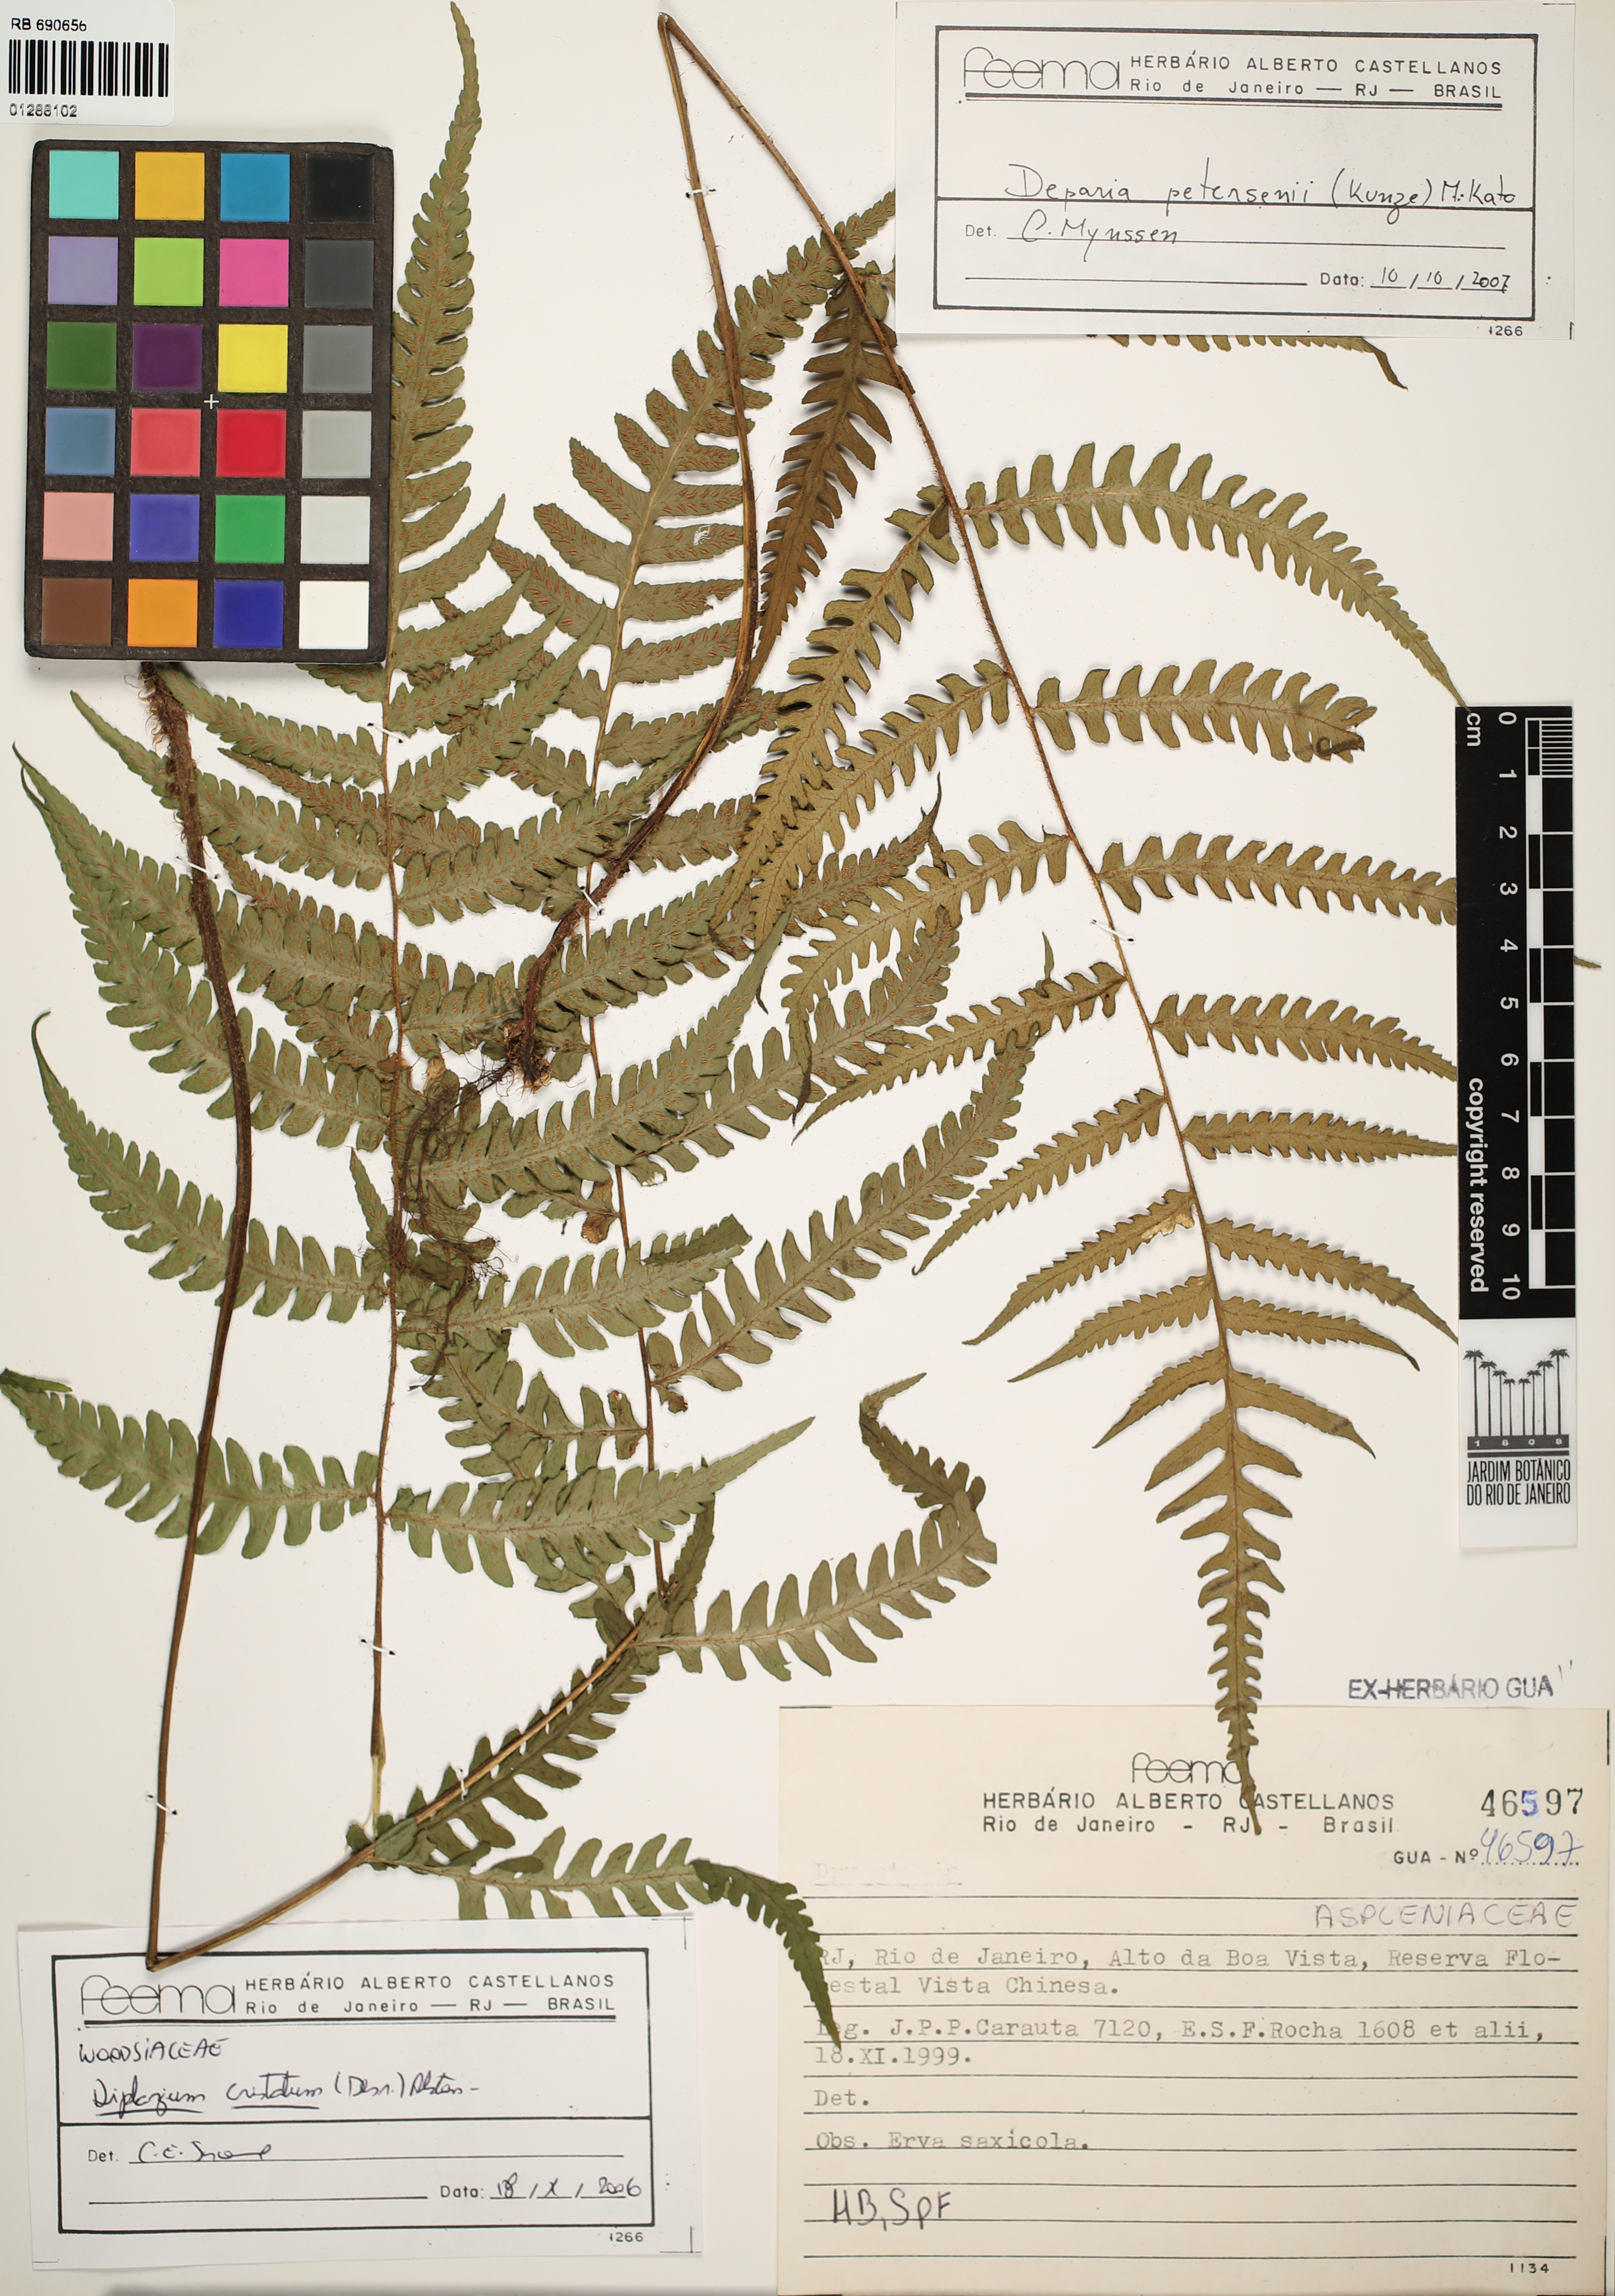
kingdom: Plantae
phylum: Tracheophyta
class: Polypodiopsida
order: Polypodiales
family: Athyriaceae
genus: Diplazium
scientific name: Diplazium cristatum
